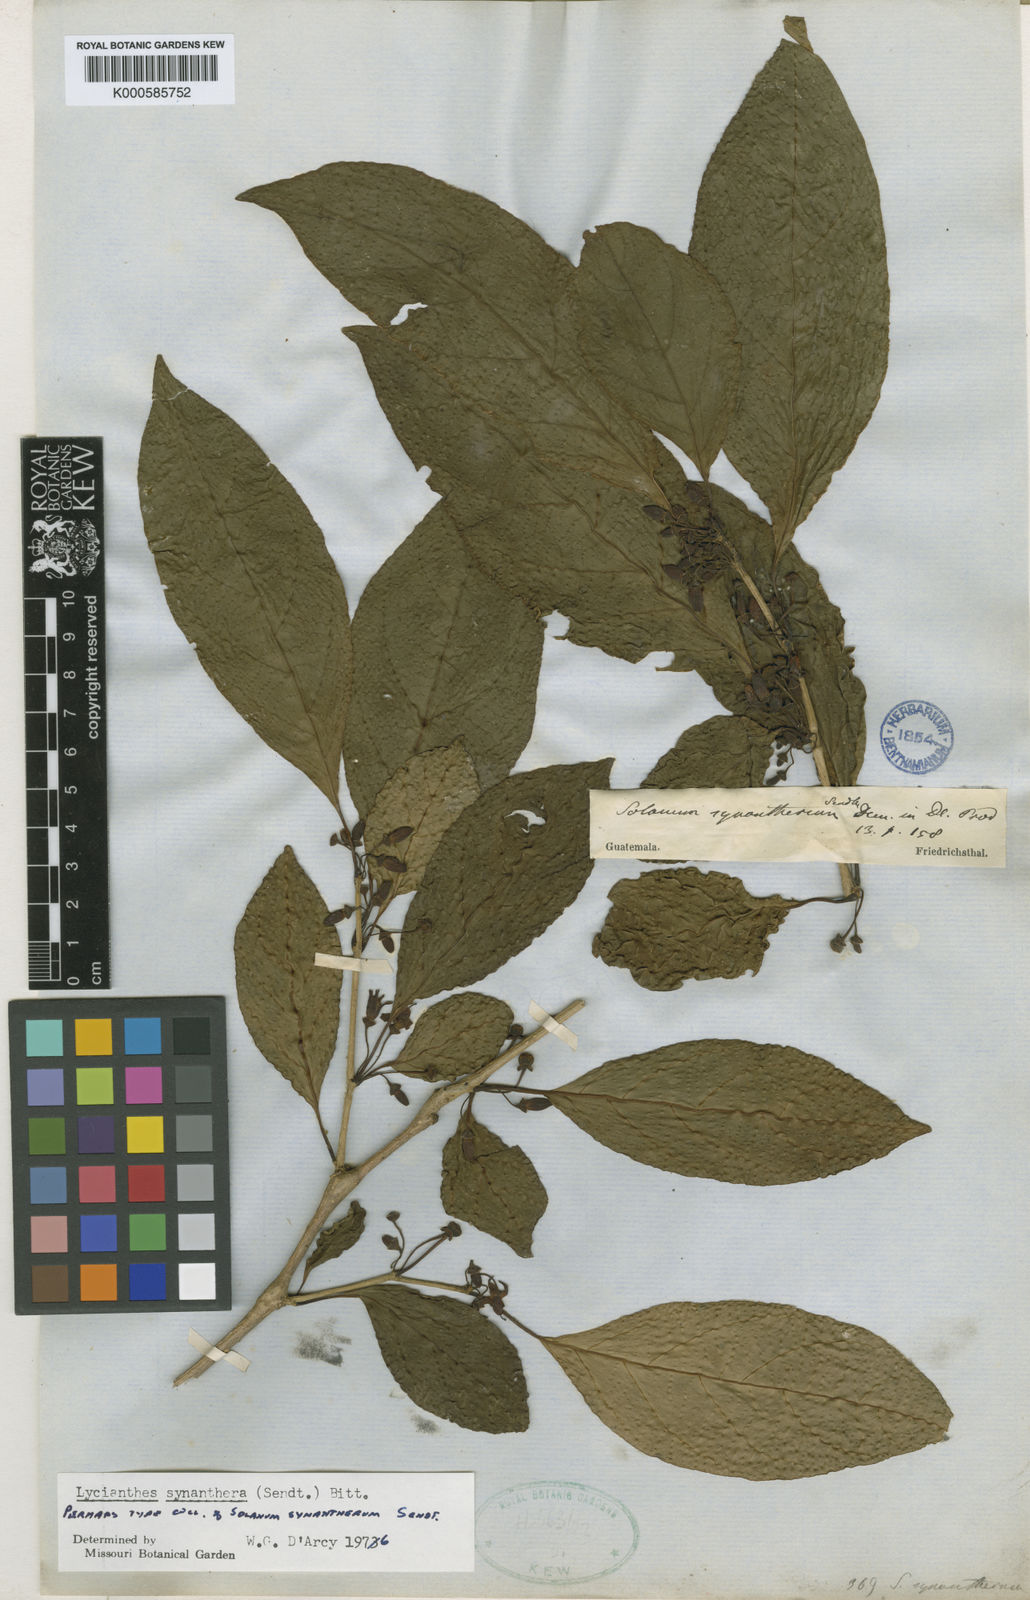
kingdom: Plantae
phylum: Tracheophyta
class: Magnoliopsida
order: Solanales
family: Solanaceae
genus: Lycianthes
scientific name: Lycianthes synanthera
